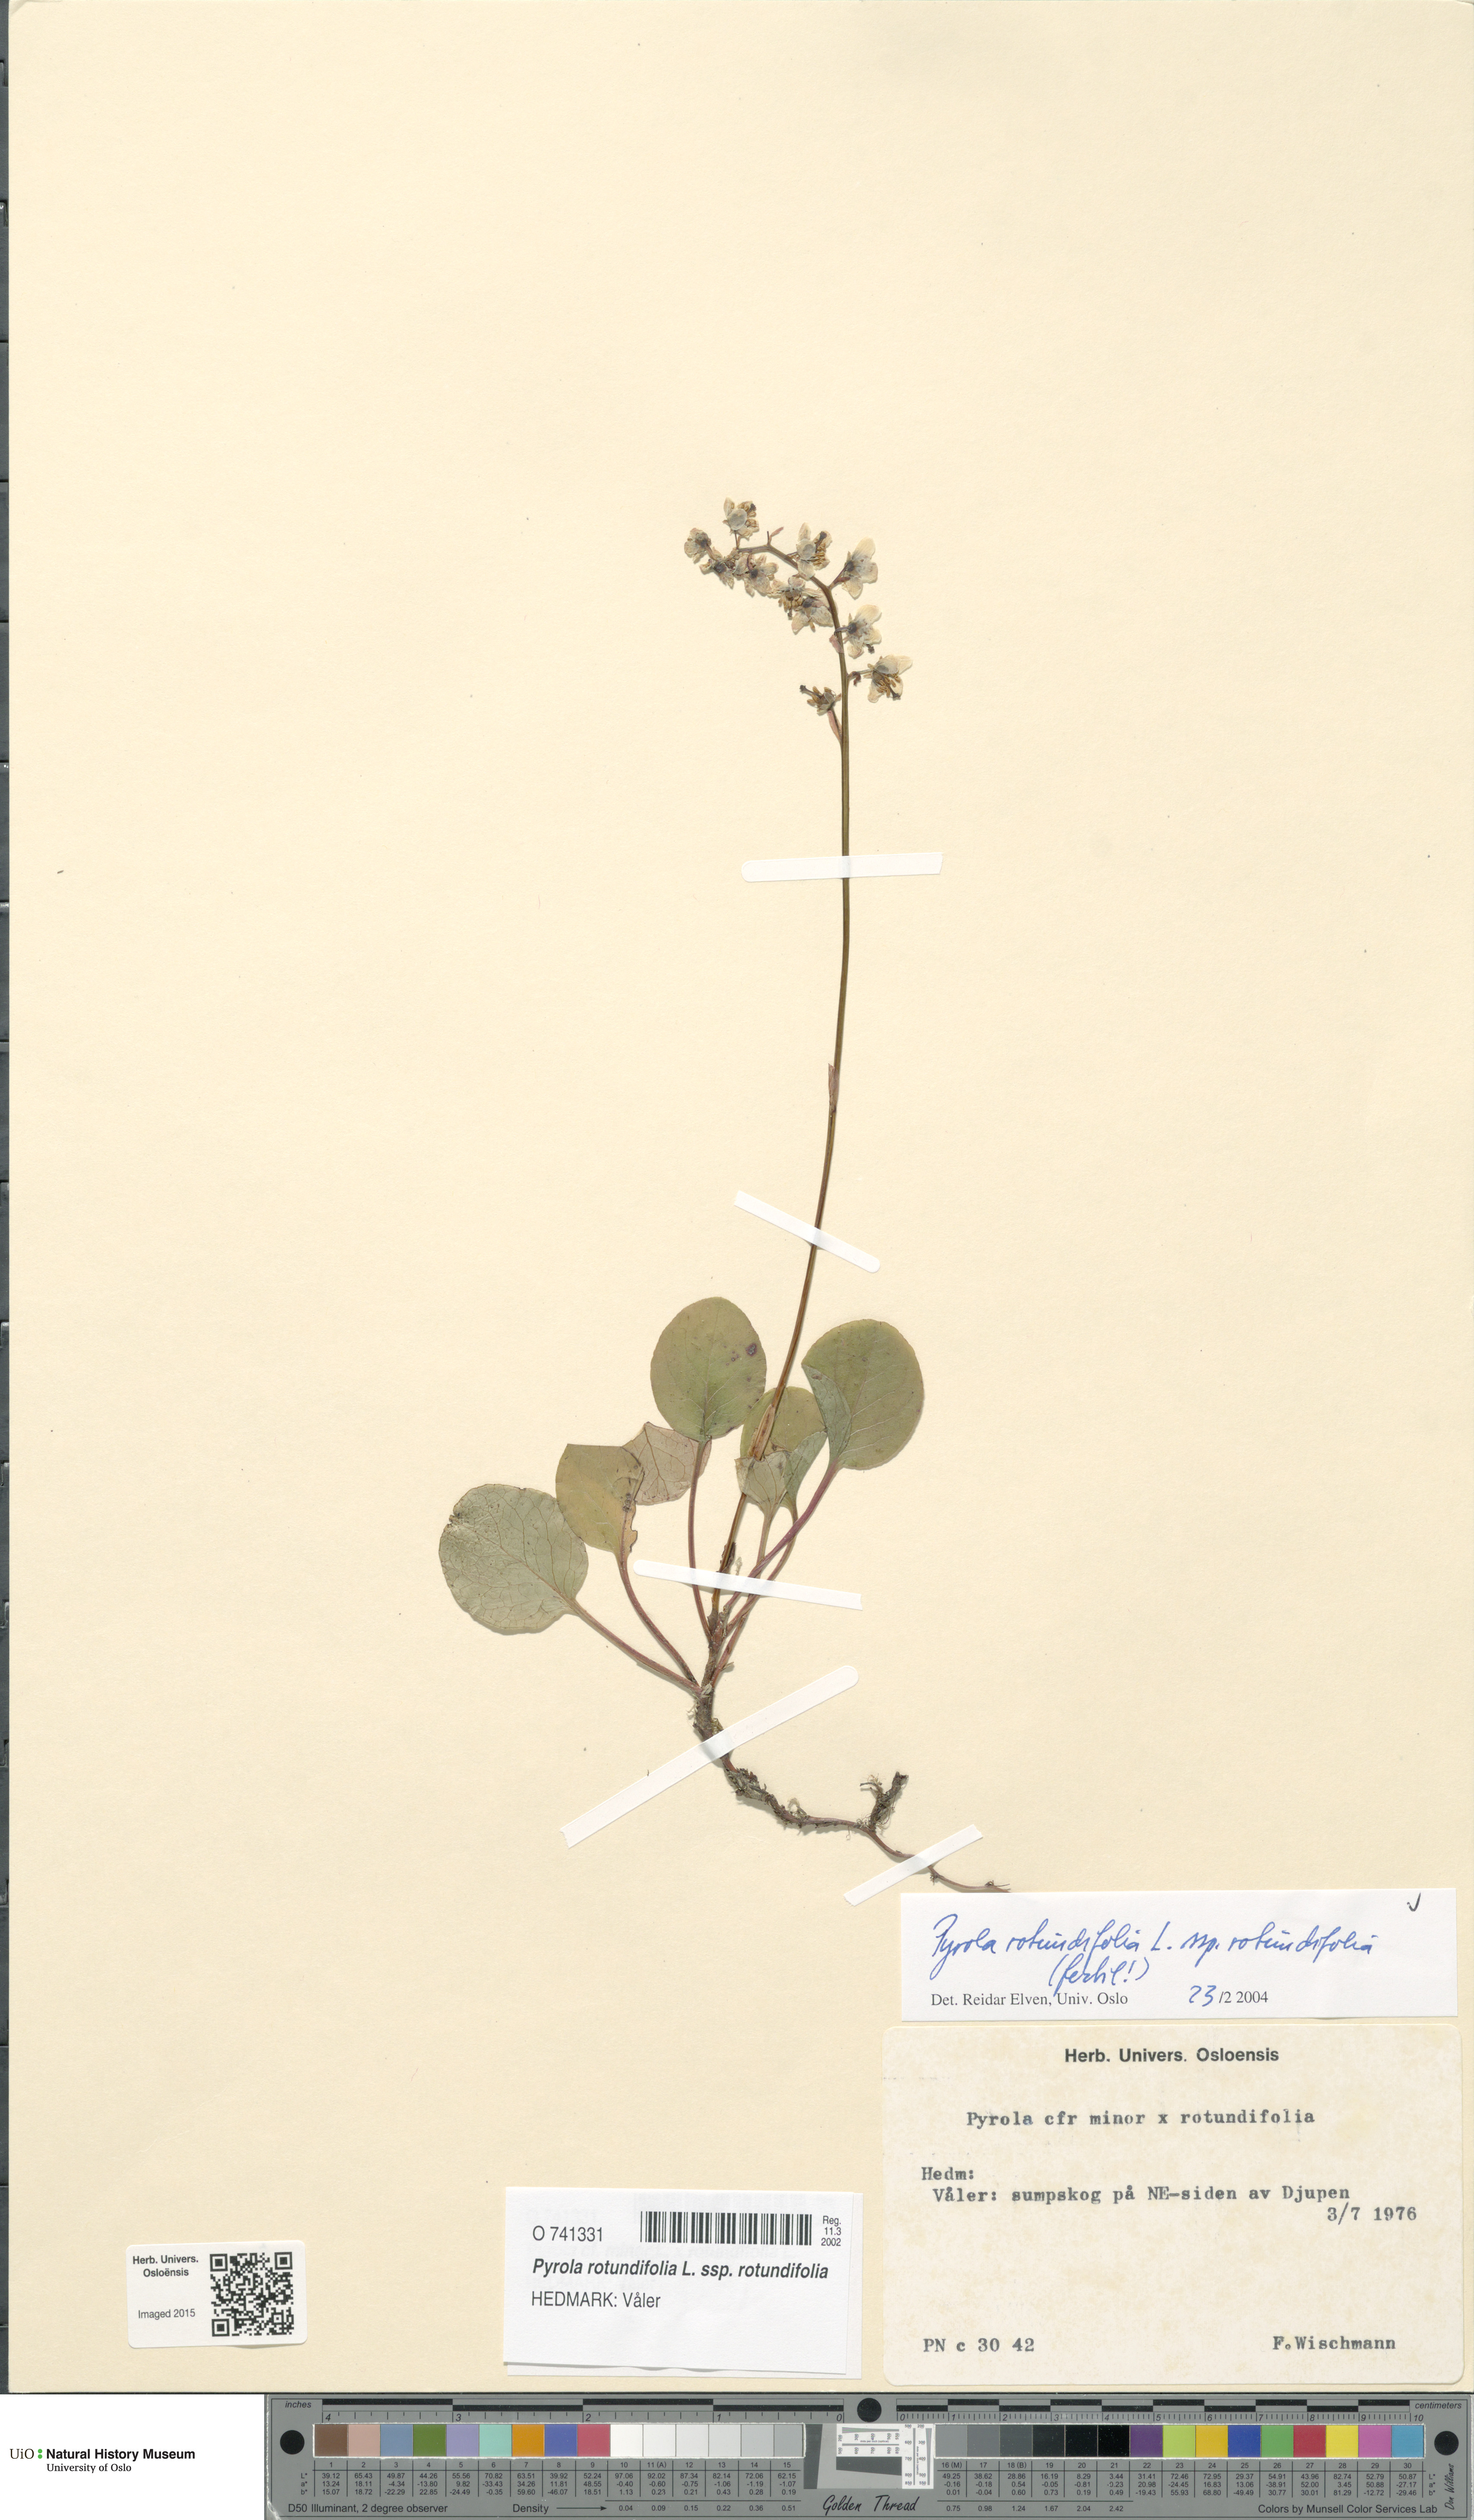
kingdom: Plantae
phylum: Tracheophyta
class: Magnoliopsida
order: Ericales
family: Ericaceae
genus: Pyrola
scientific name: Pyrola rotundifolia
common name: Round-leaved wintergreen
